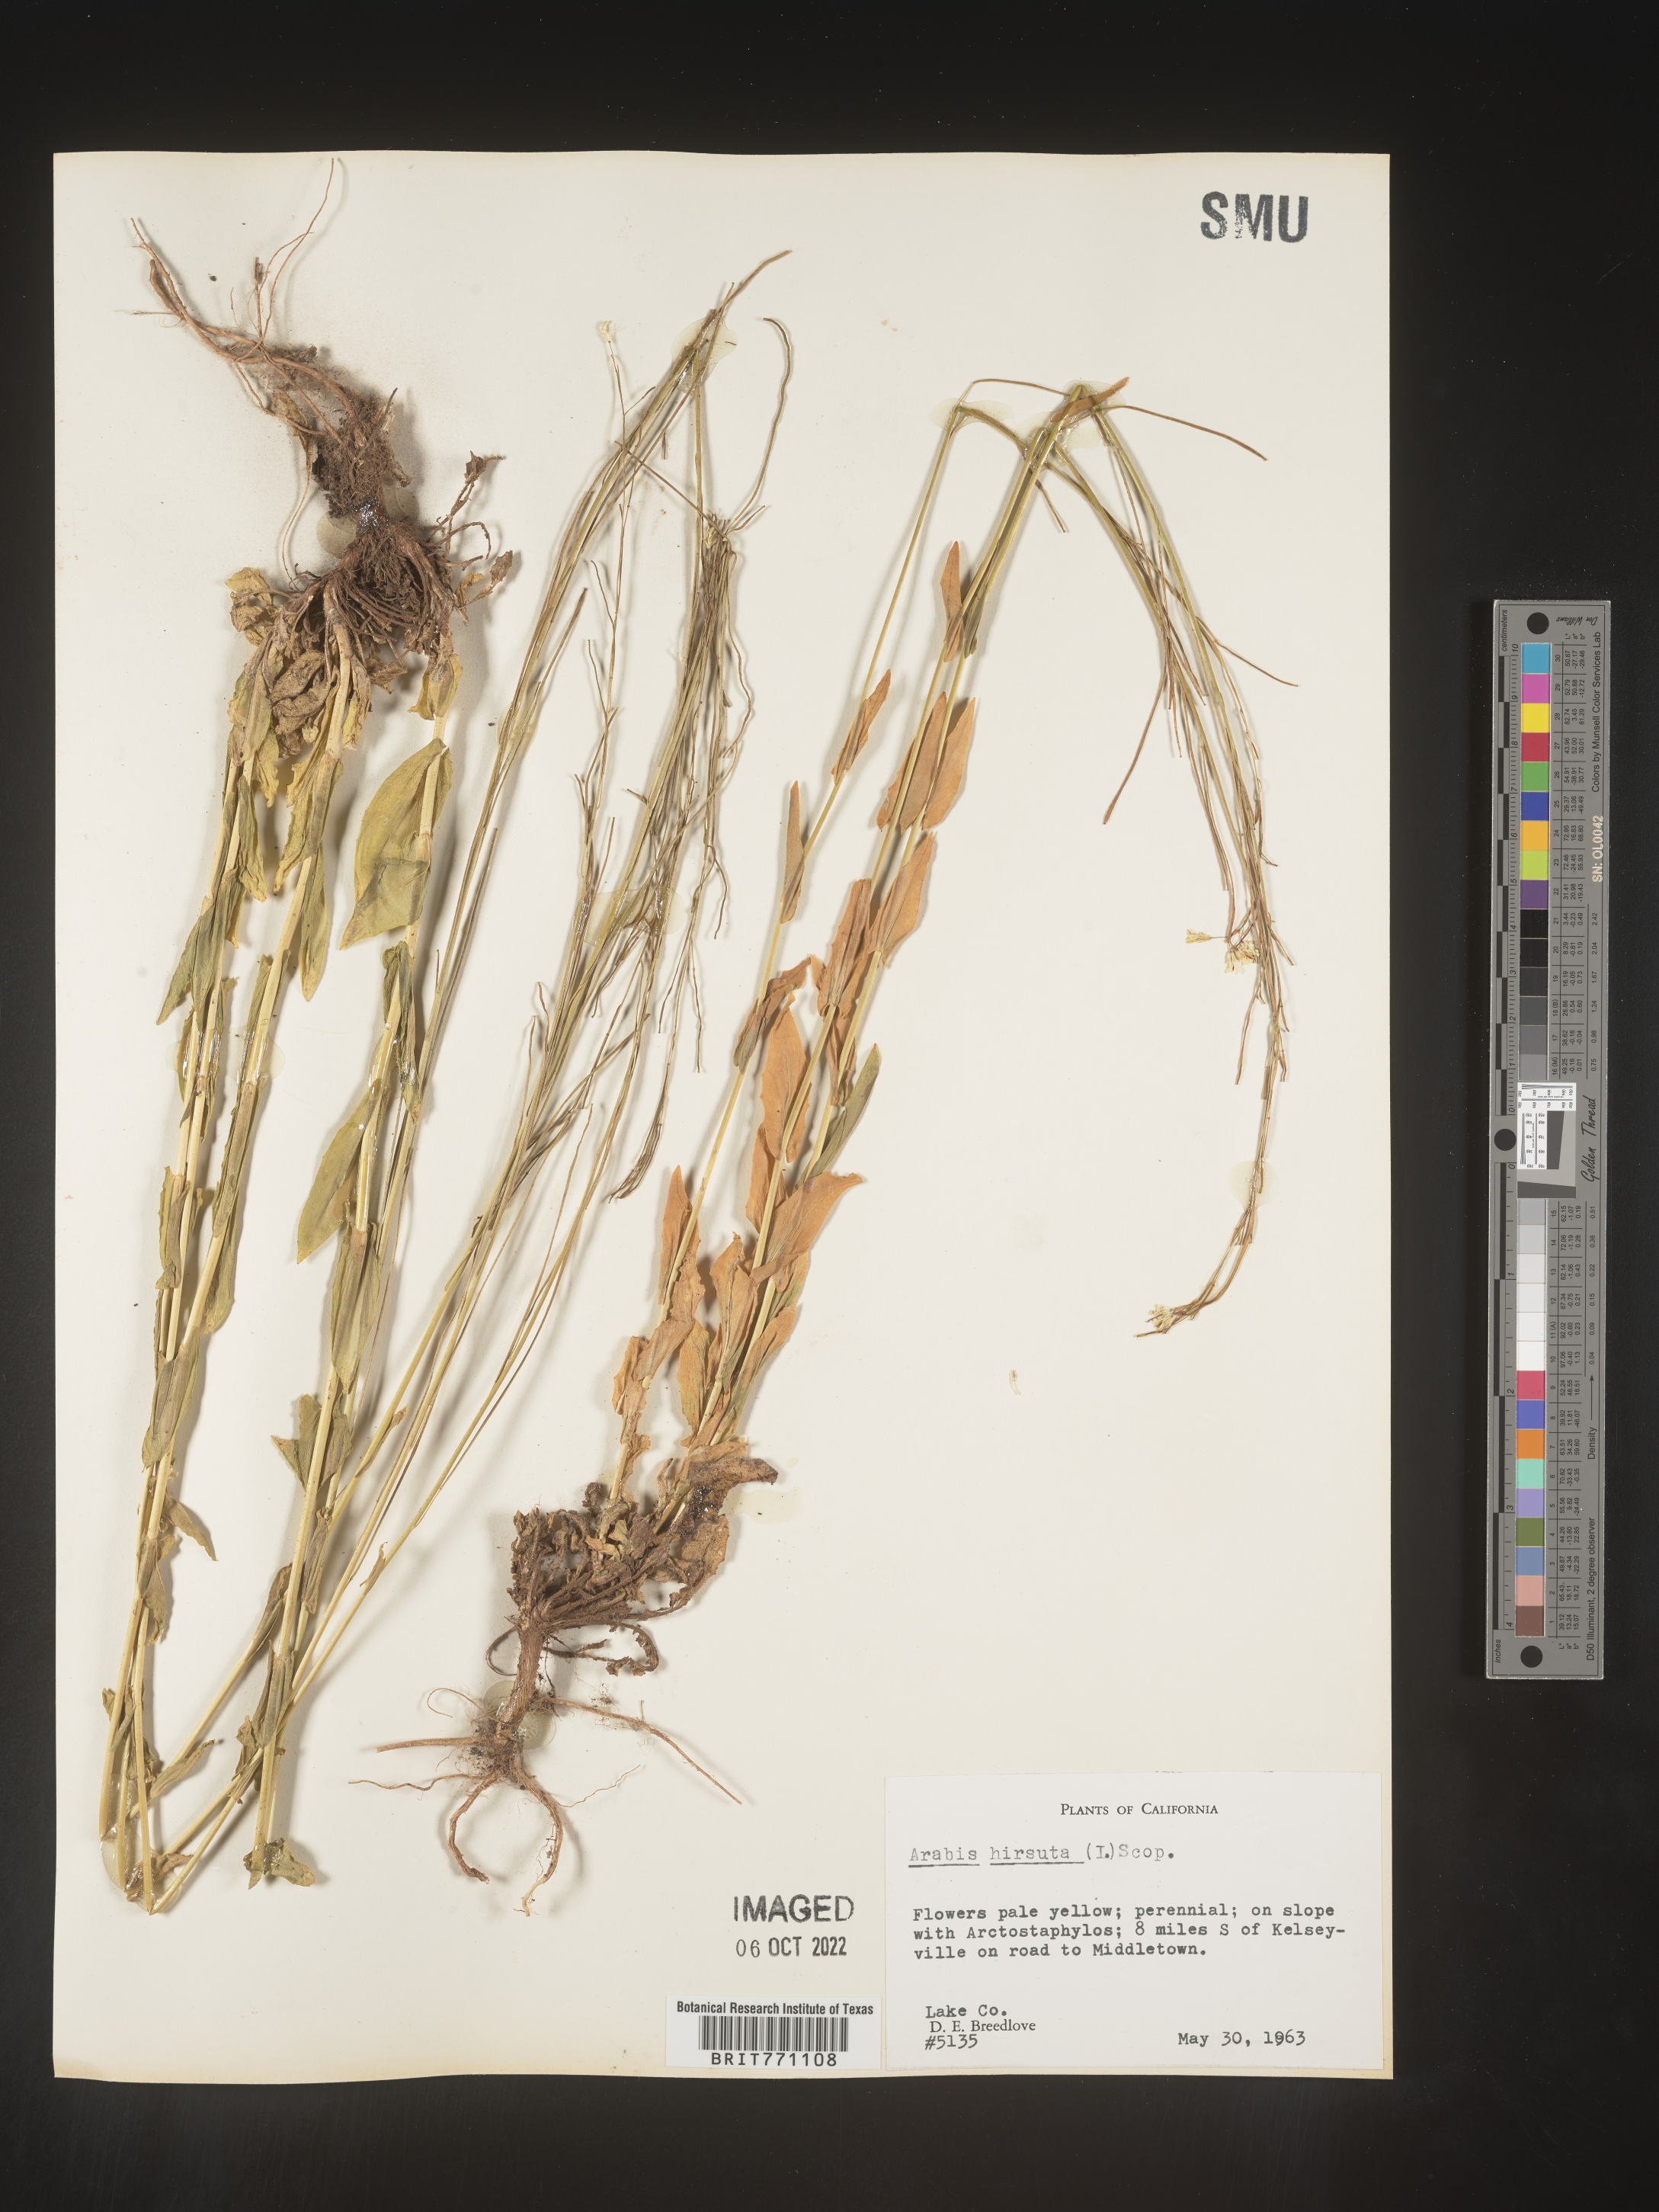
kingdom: Plantae
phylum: Tracheophyta
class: Magnoliopsida
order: Brassicales
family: Brassicaceae
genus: Arabis
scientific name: Arabis hirsuta
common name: Hairy rock-cress
